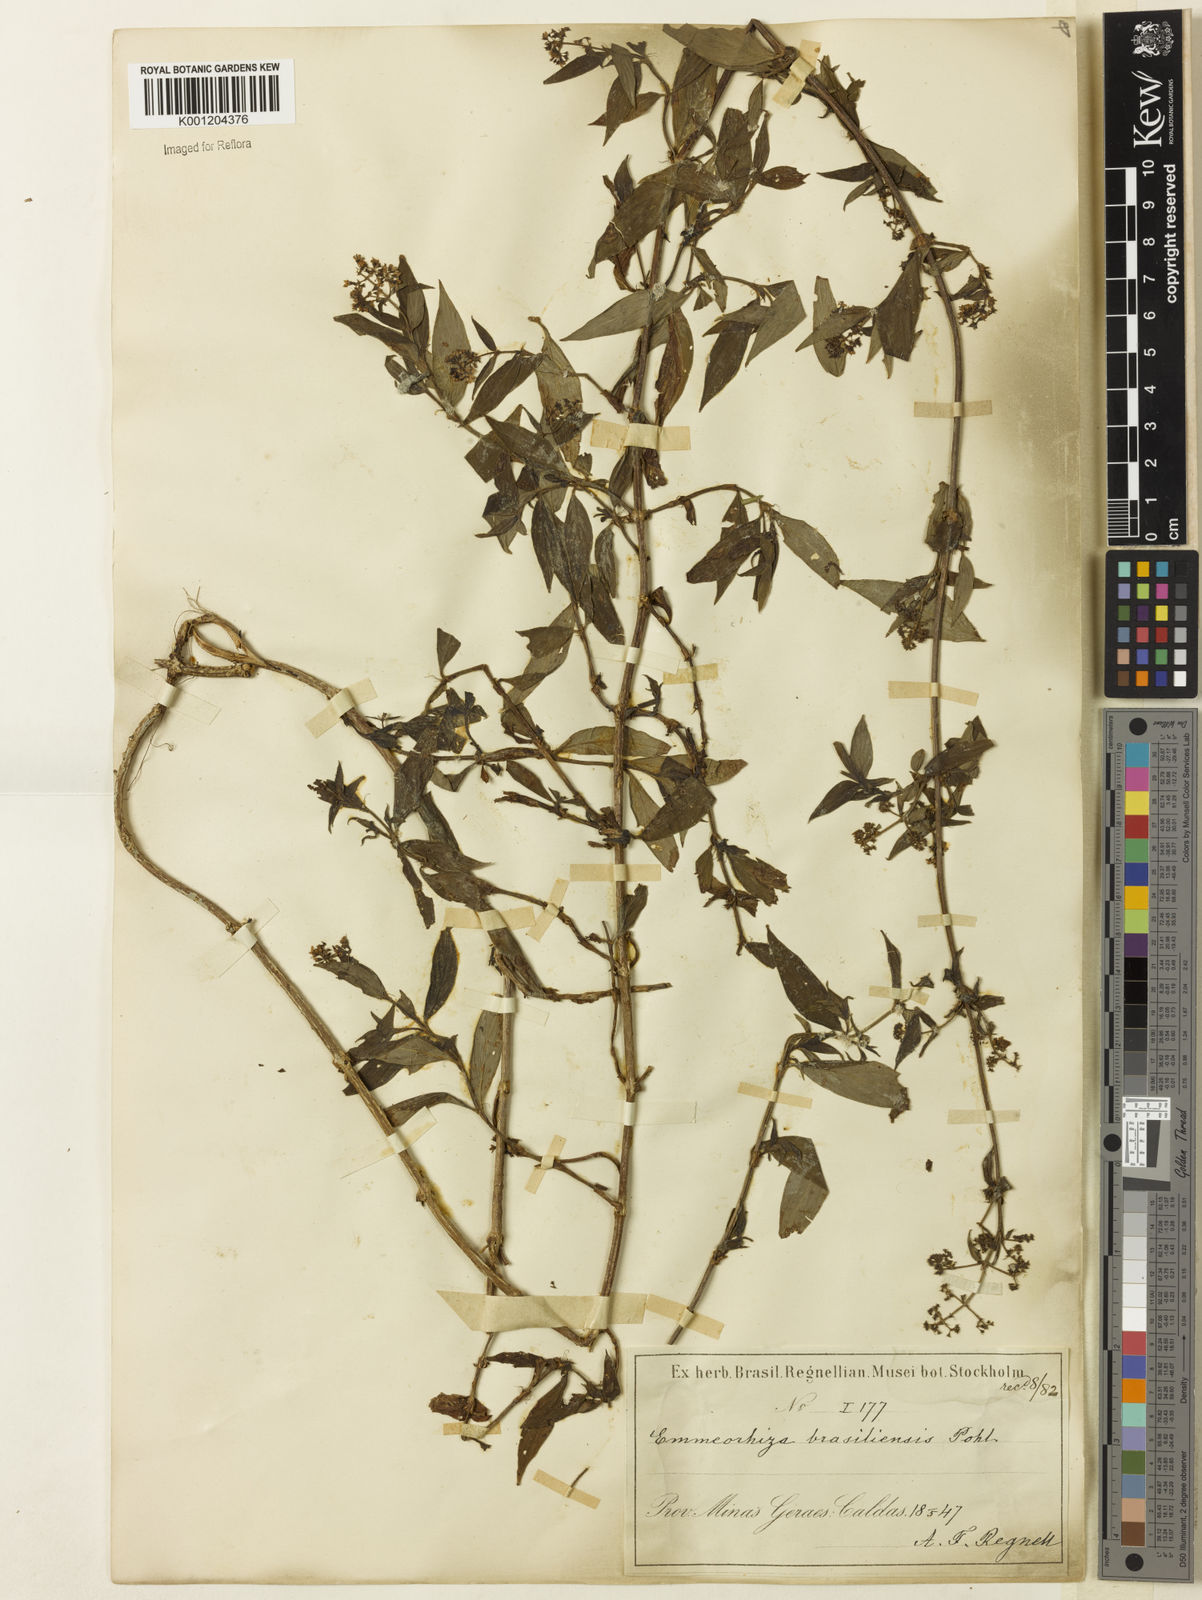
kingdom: Plantae
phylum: Tracheophyta
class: Magnoliopsida
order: Gentianales
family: Rubiaceae
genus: Emmeorhiza
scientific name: Emmeorhiza umbellata
